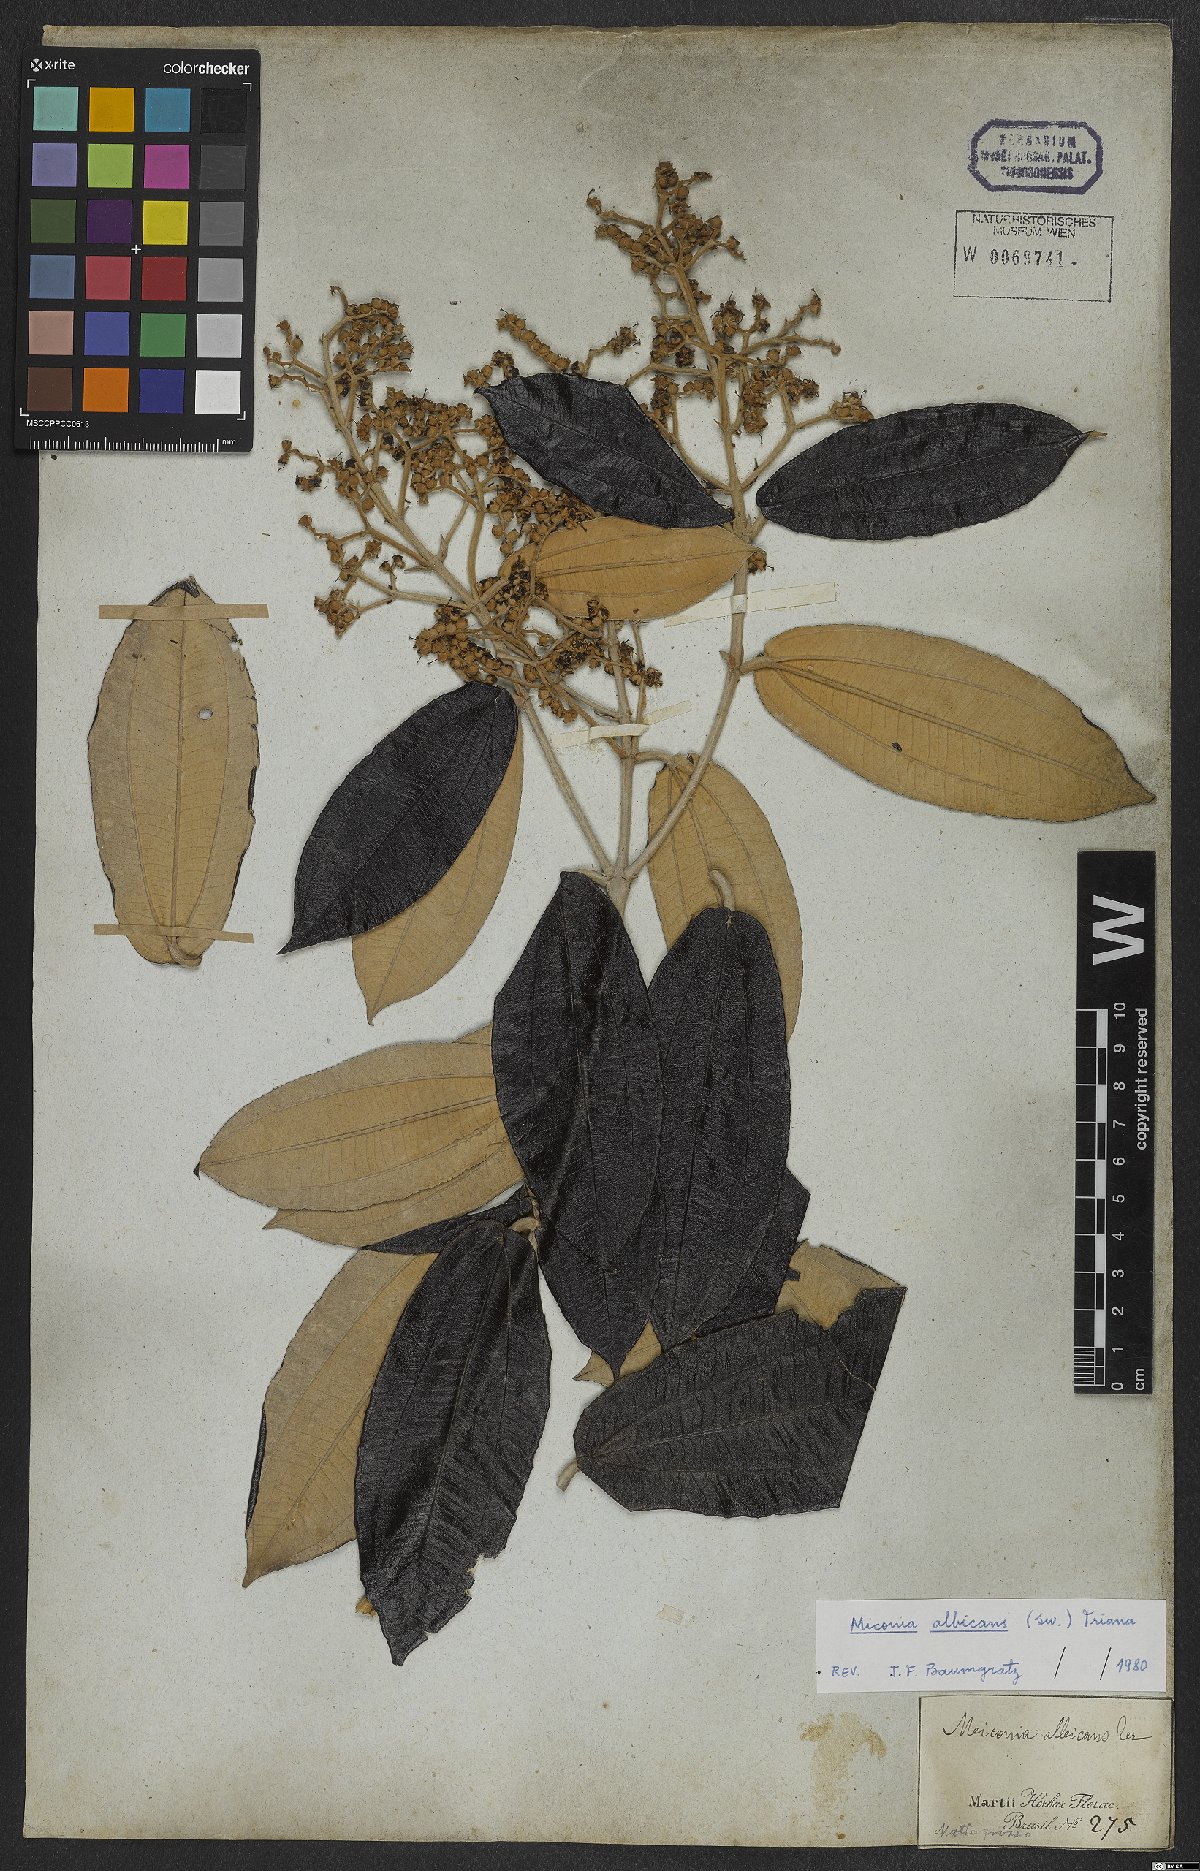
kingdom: Plantae
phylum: Tracheophyta
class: Magnoliopsida
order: Myrtales
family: Melastomataceae
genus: Miconia
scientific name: Miconia albicans
